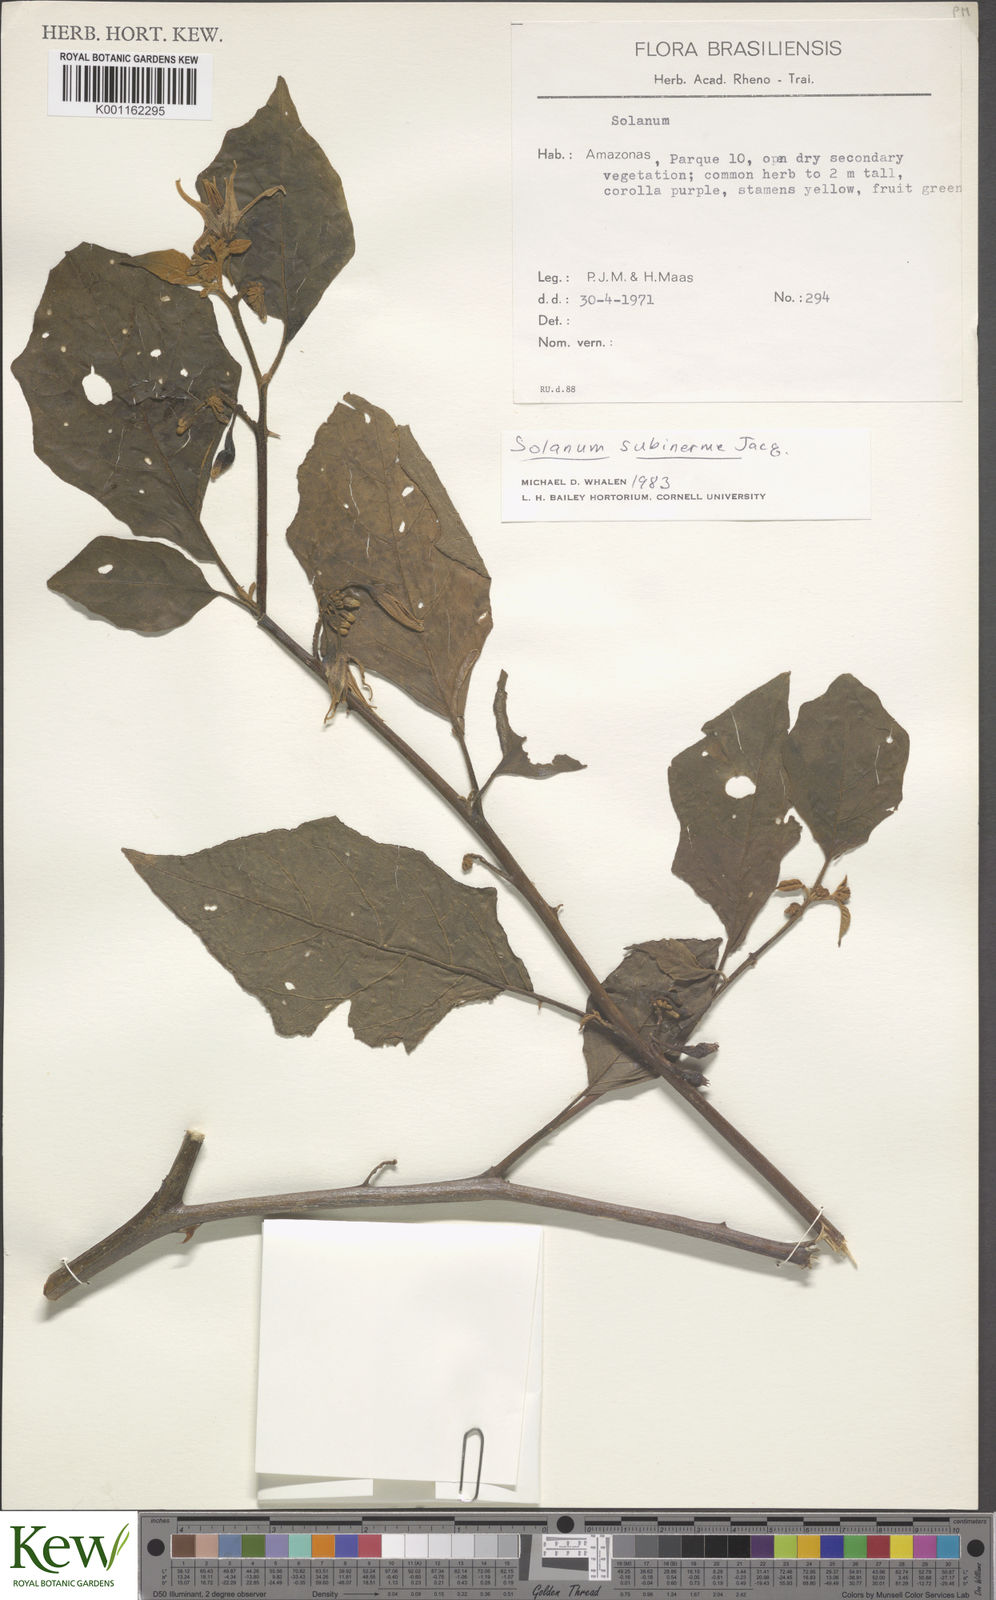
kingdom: Plantae
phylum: Tracheophyta
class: Magnoliopsida
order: Solanales
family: Solanaceae
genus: Solanum
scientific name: Solanum subinerme
